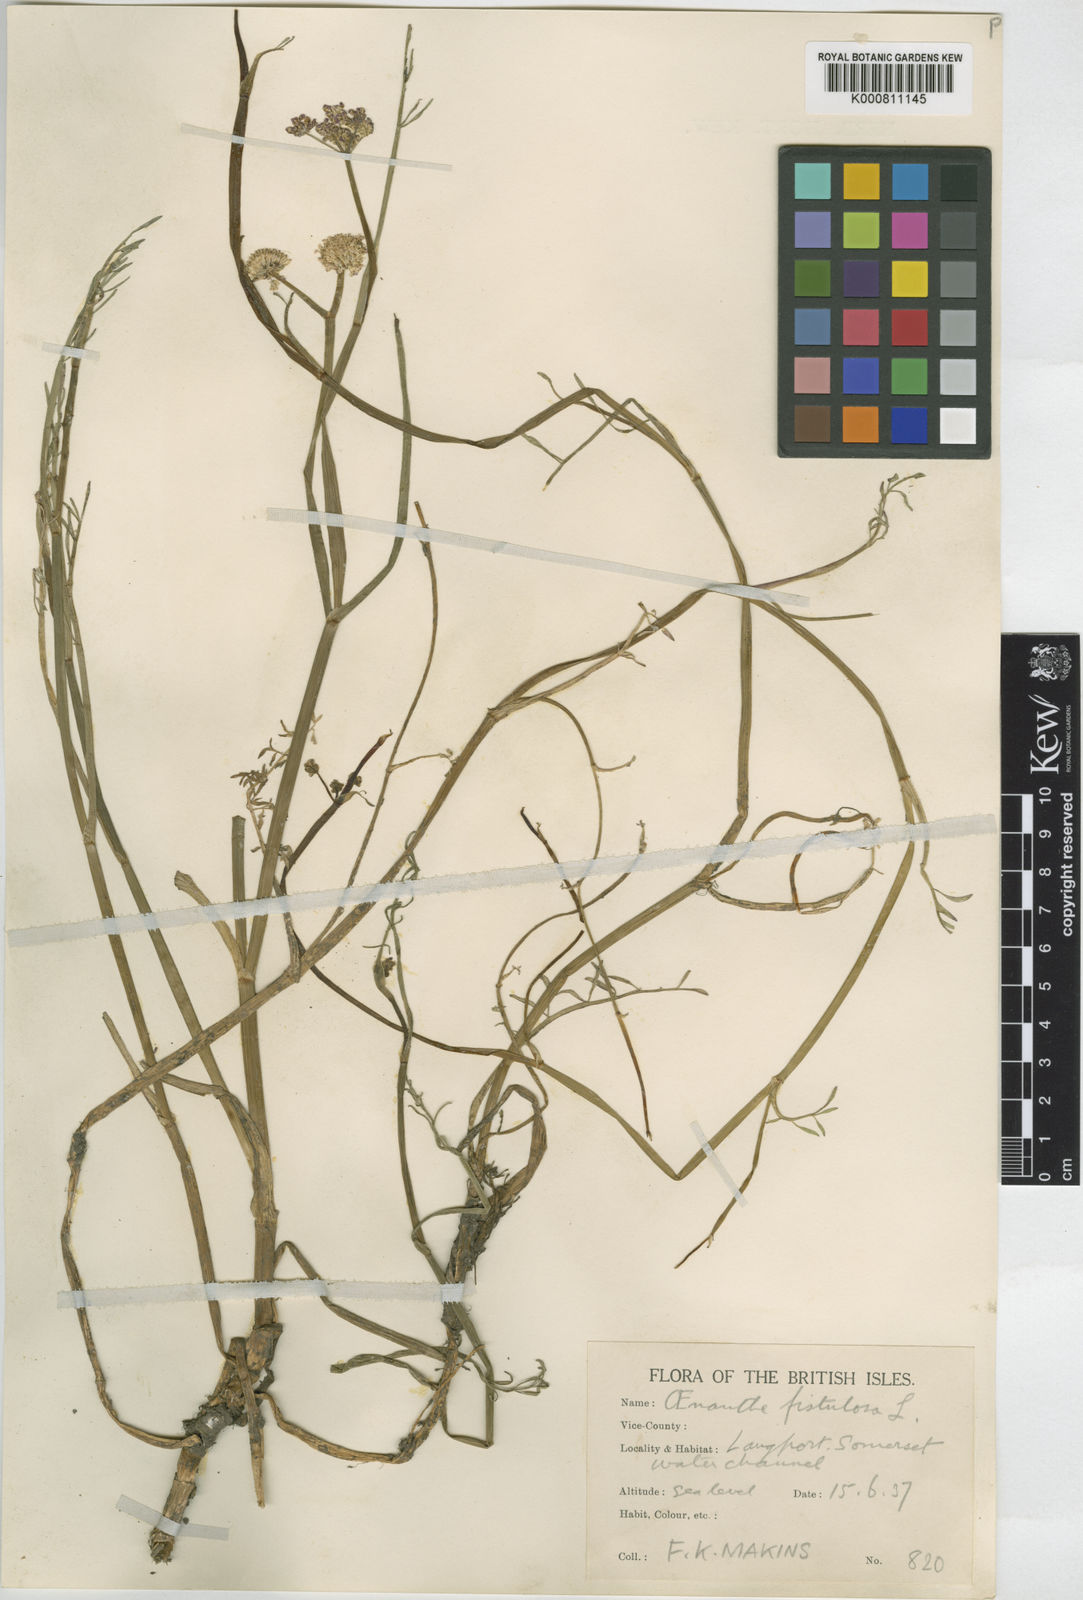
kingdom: Plantae
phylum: Tracheophyta
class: Magnoliopsida
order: Apiales
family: Apiaceae
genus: Oenanthe
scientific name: Oenanthe fistulosa
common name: Tubular water-dropwort
